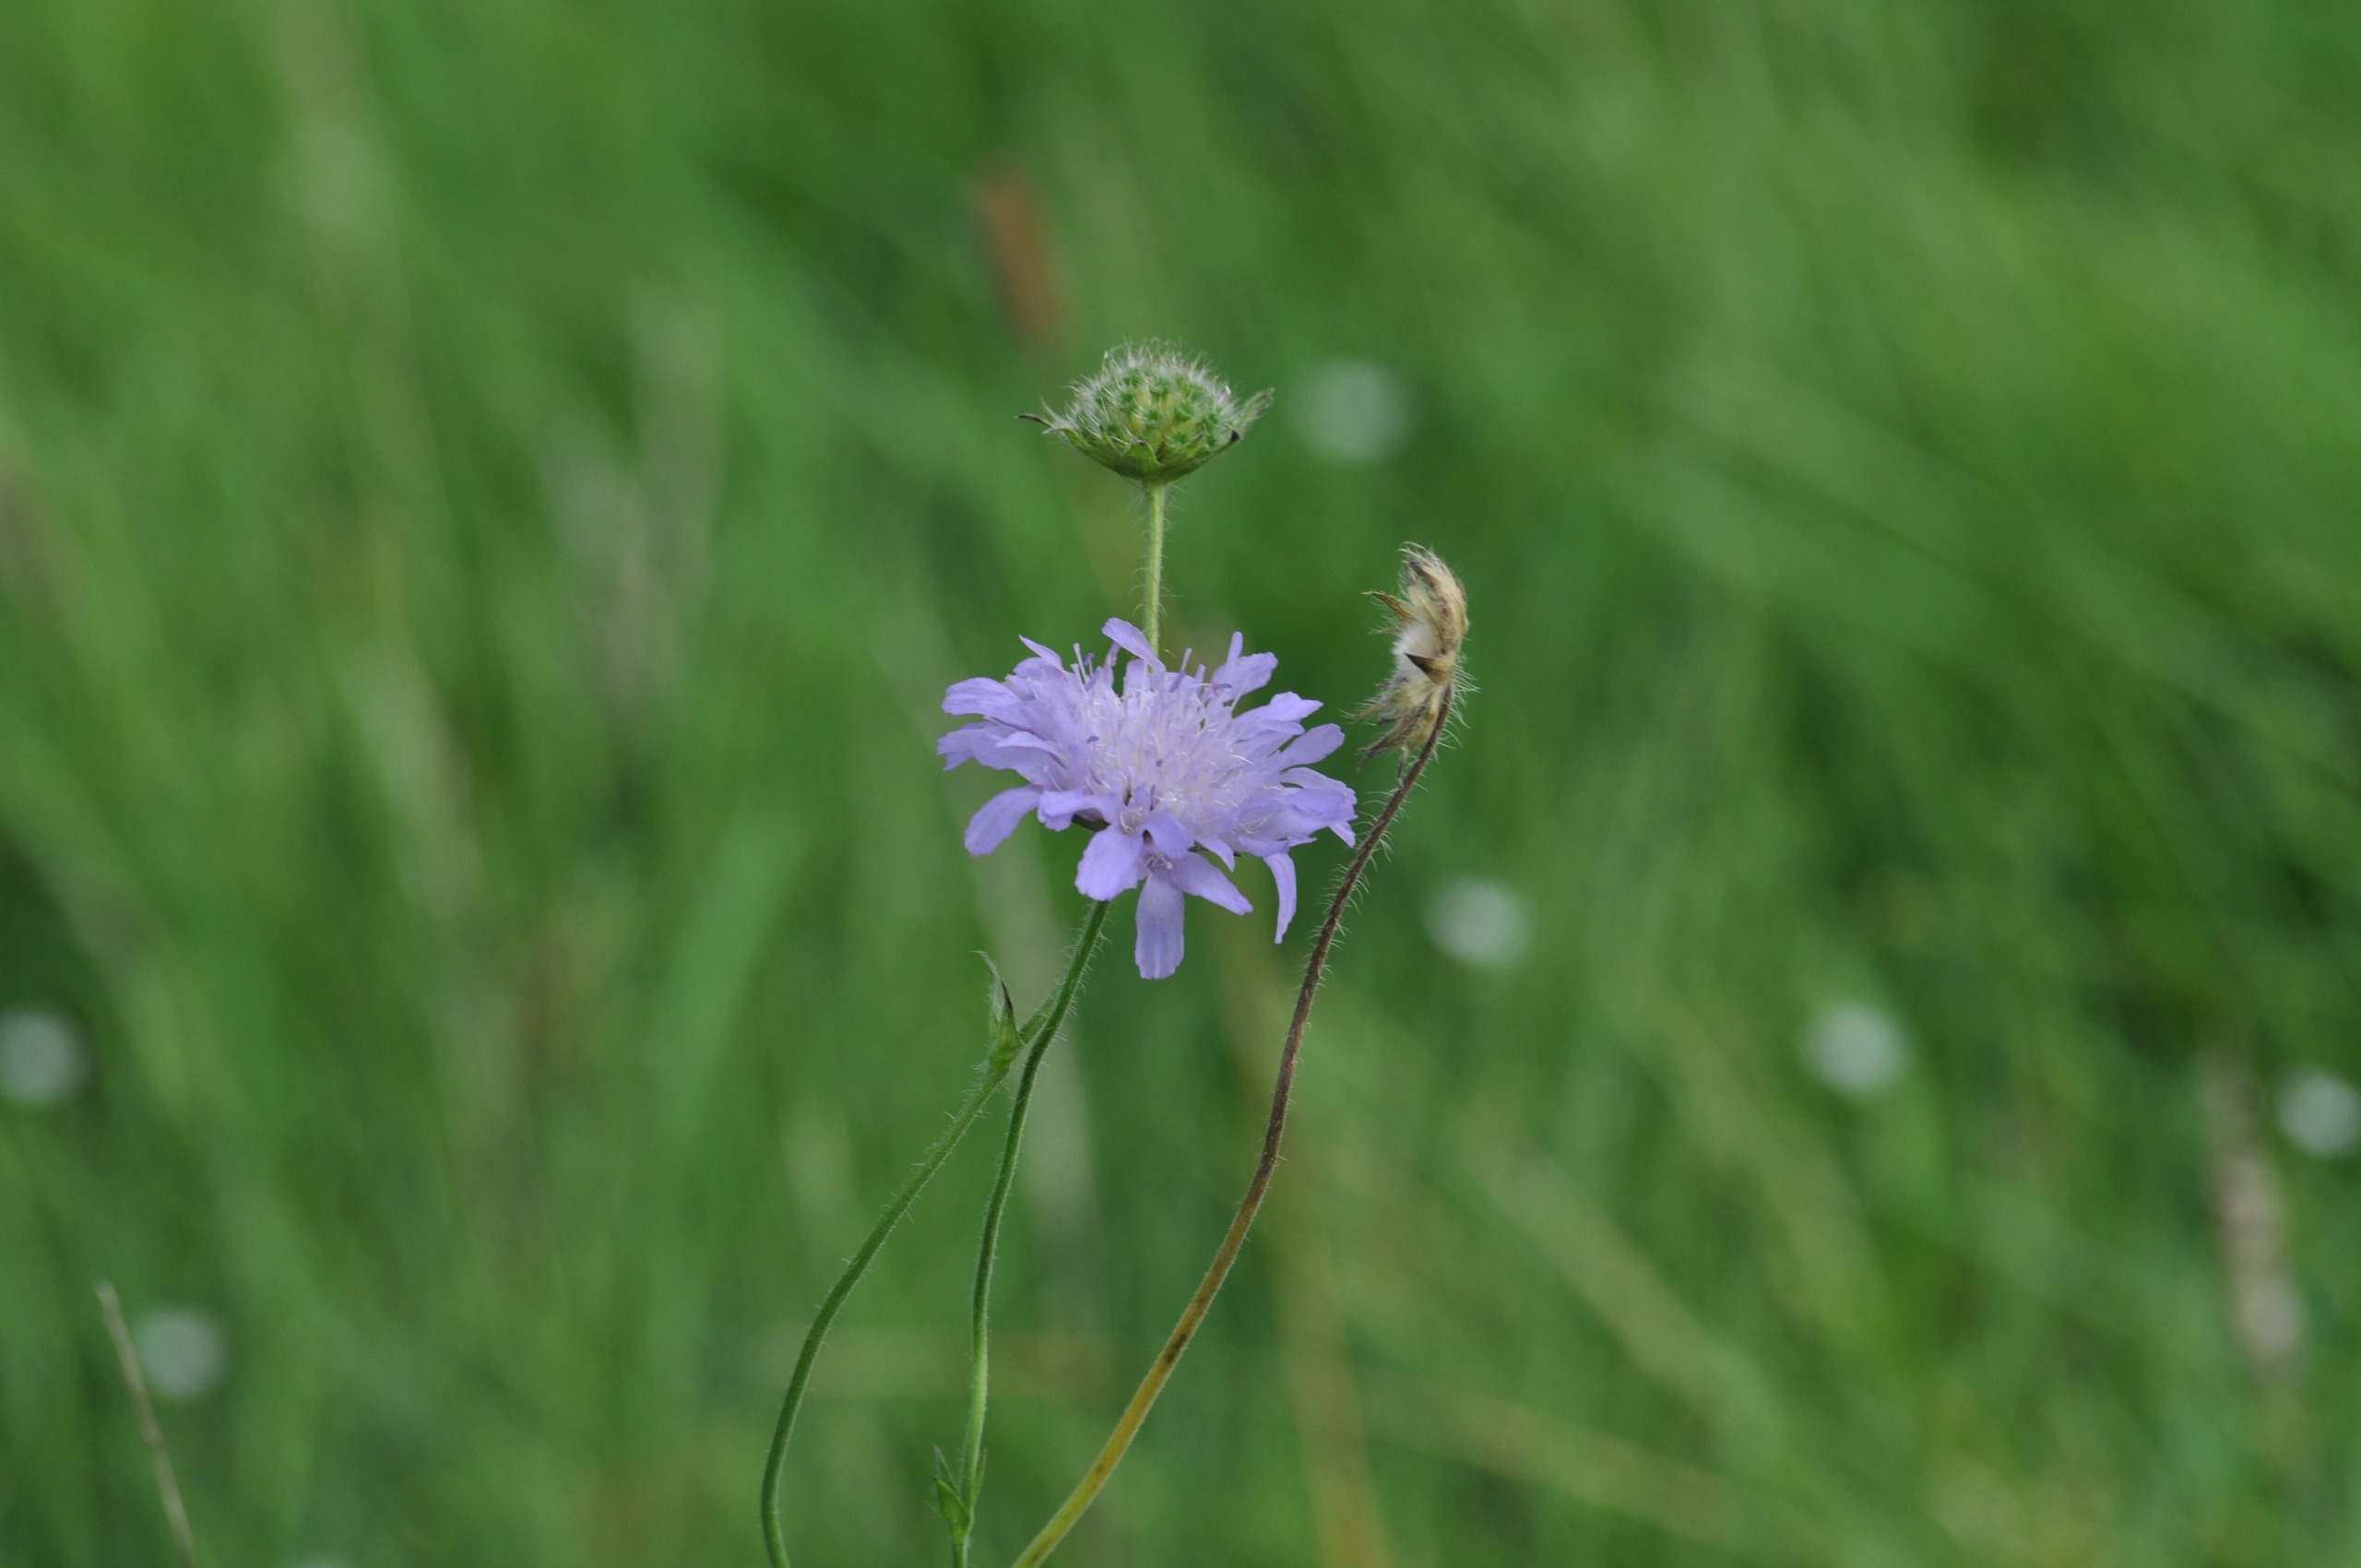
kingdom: Plantae
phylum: Tracheophyta
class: Magnoliopsida
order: Dipsacales
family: Caprifoliaceae
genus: Knautia
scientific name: Knautia arvensis
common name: Blåhat
